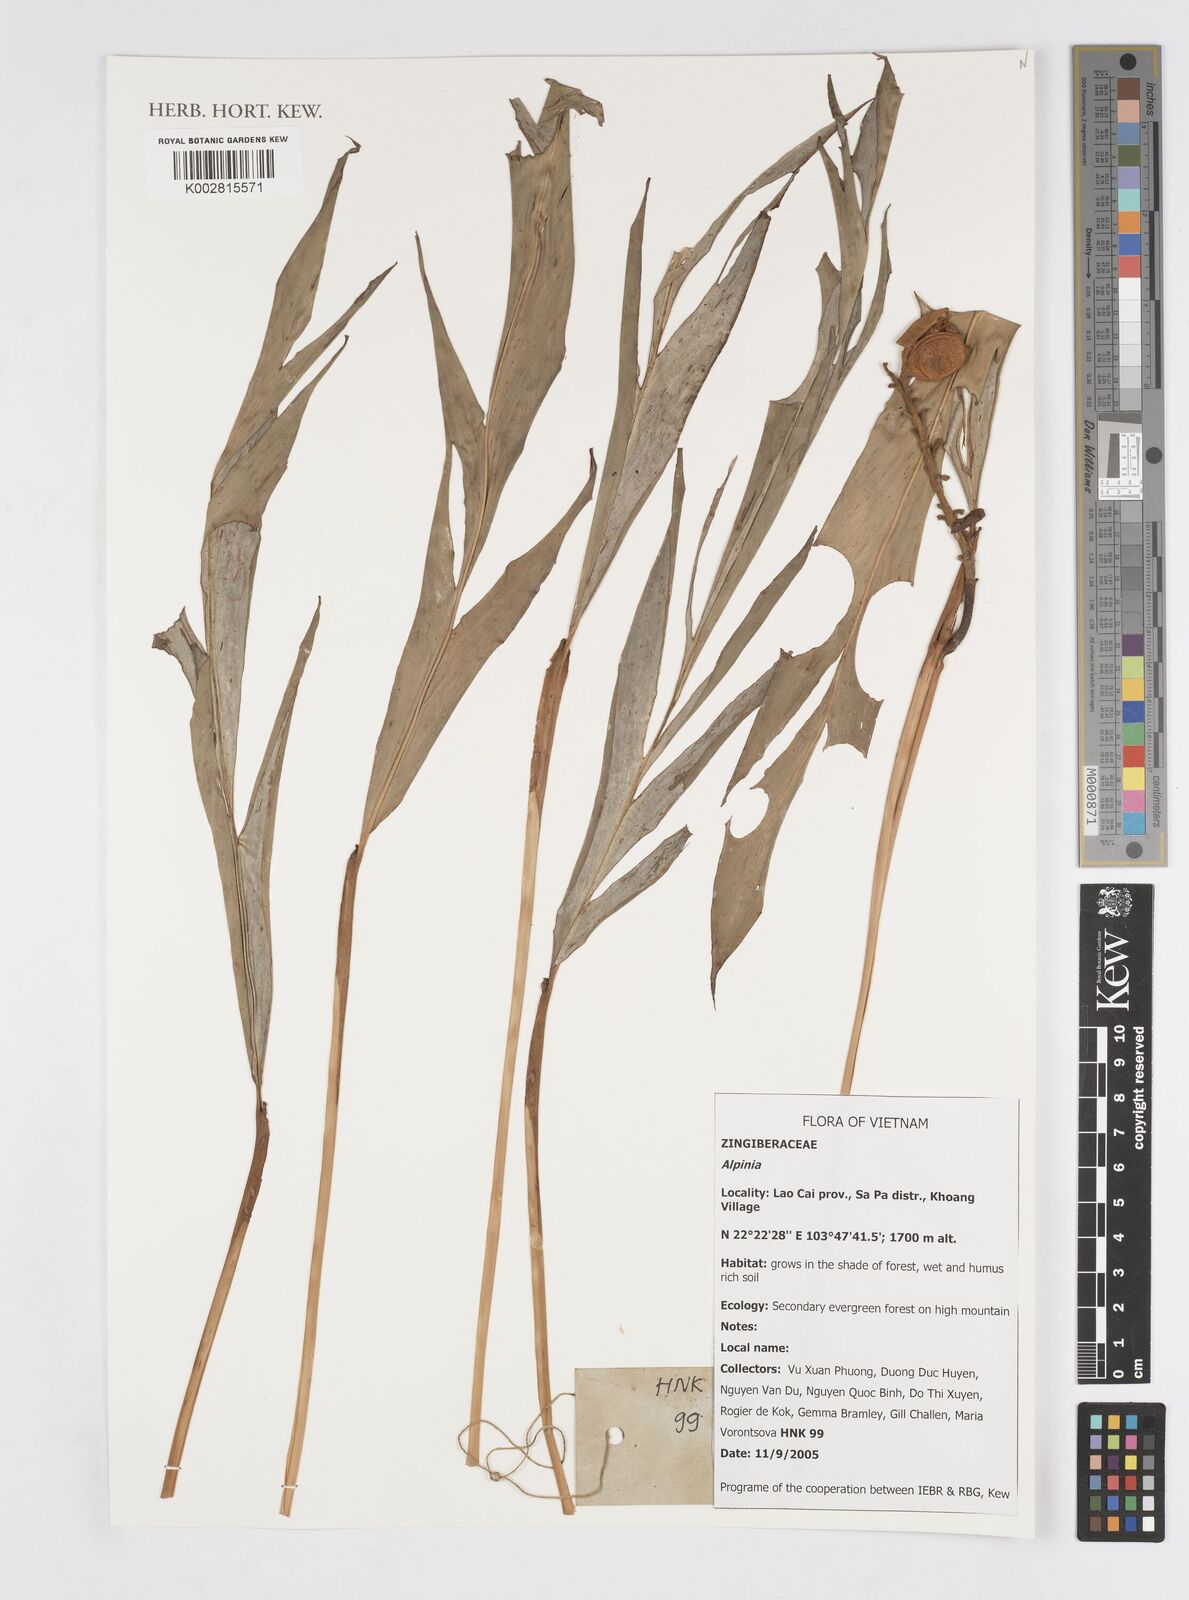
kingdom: Plantae
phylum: Tracheophyta
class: Liliopsida
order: Zingiberales
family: Zingiberaceae
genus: Alpinia
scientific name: Alpinia
